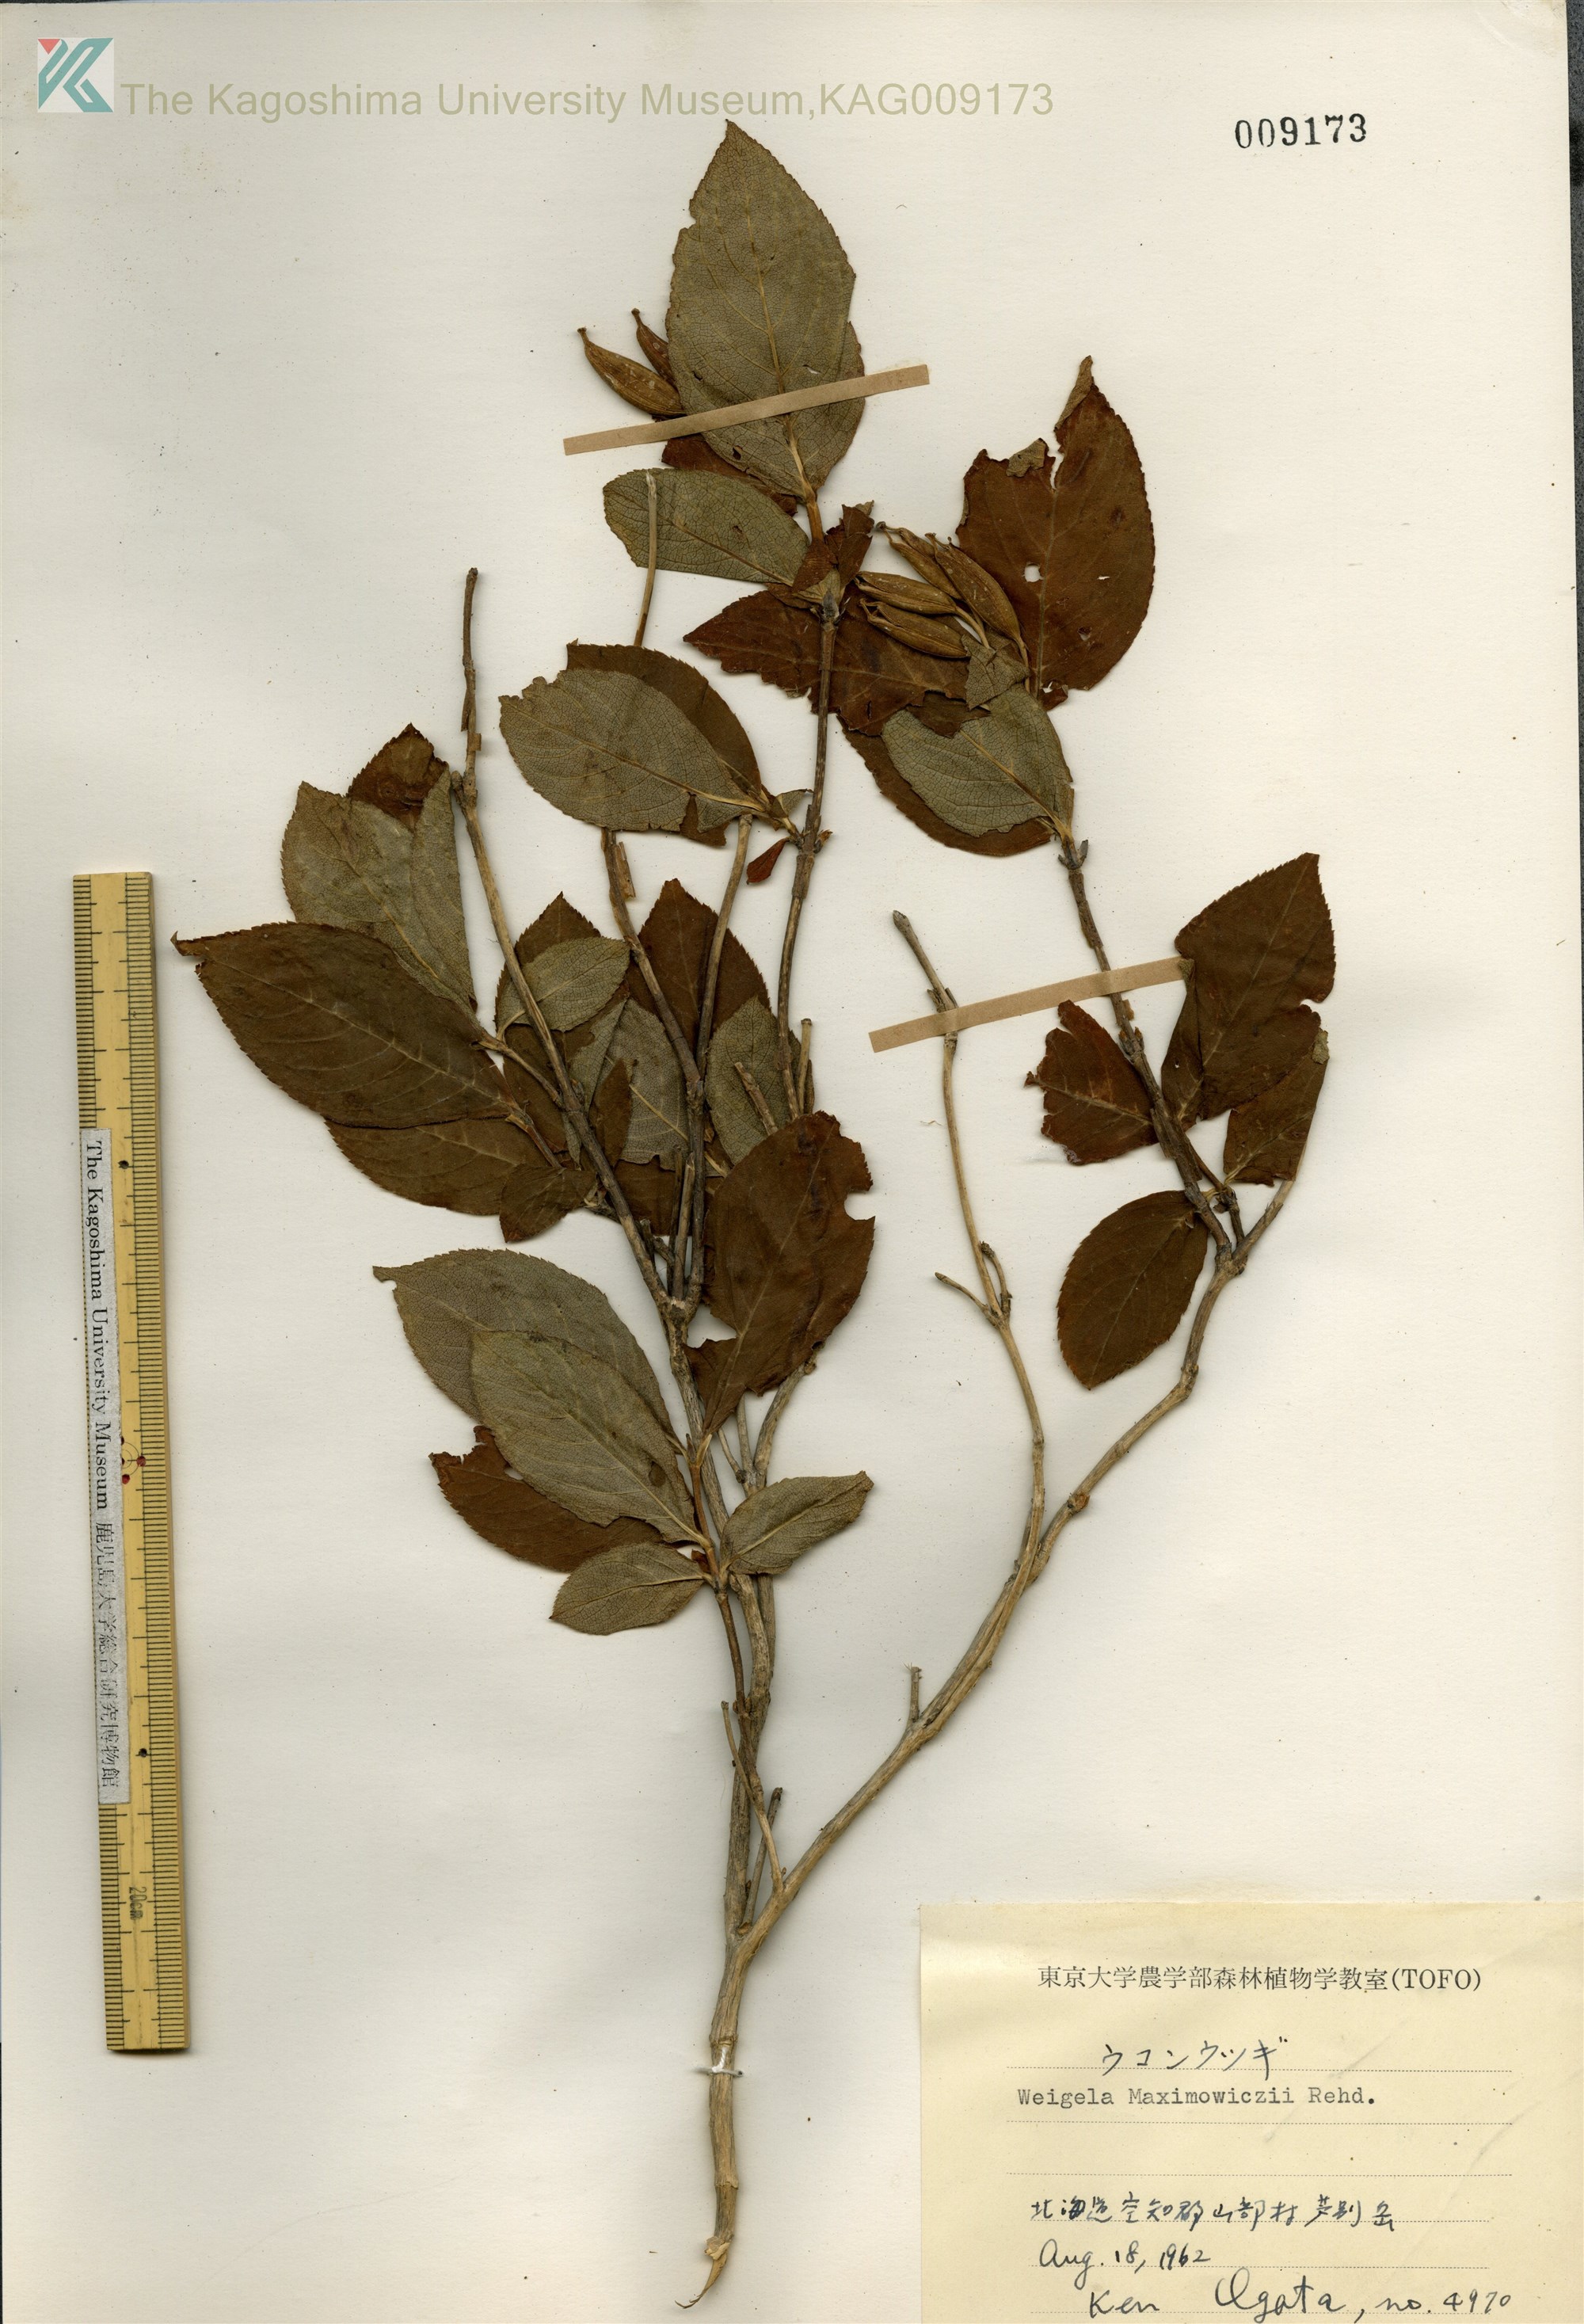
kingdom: Plantae
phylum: Tracheophyta
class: Magnoliopsida
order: Dipsacales
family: Caprifoliaceae
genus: Weigela
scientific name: Weigela middendorffiana
